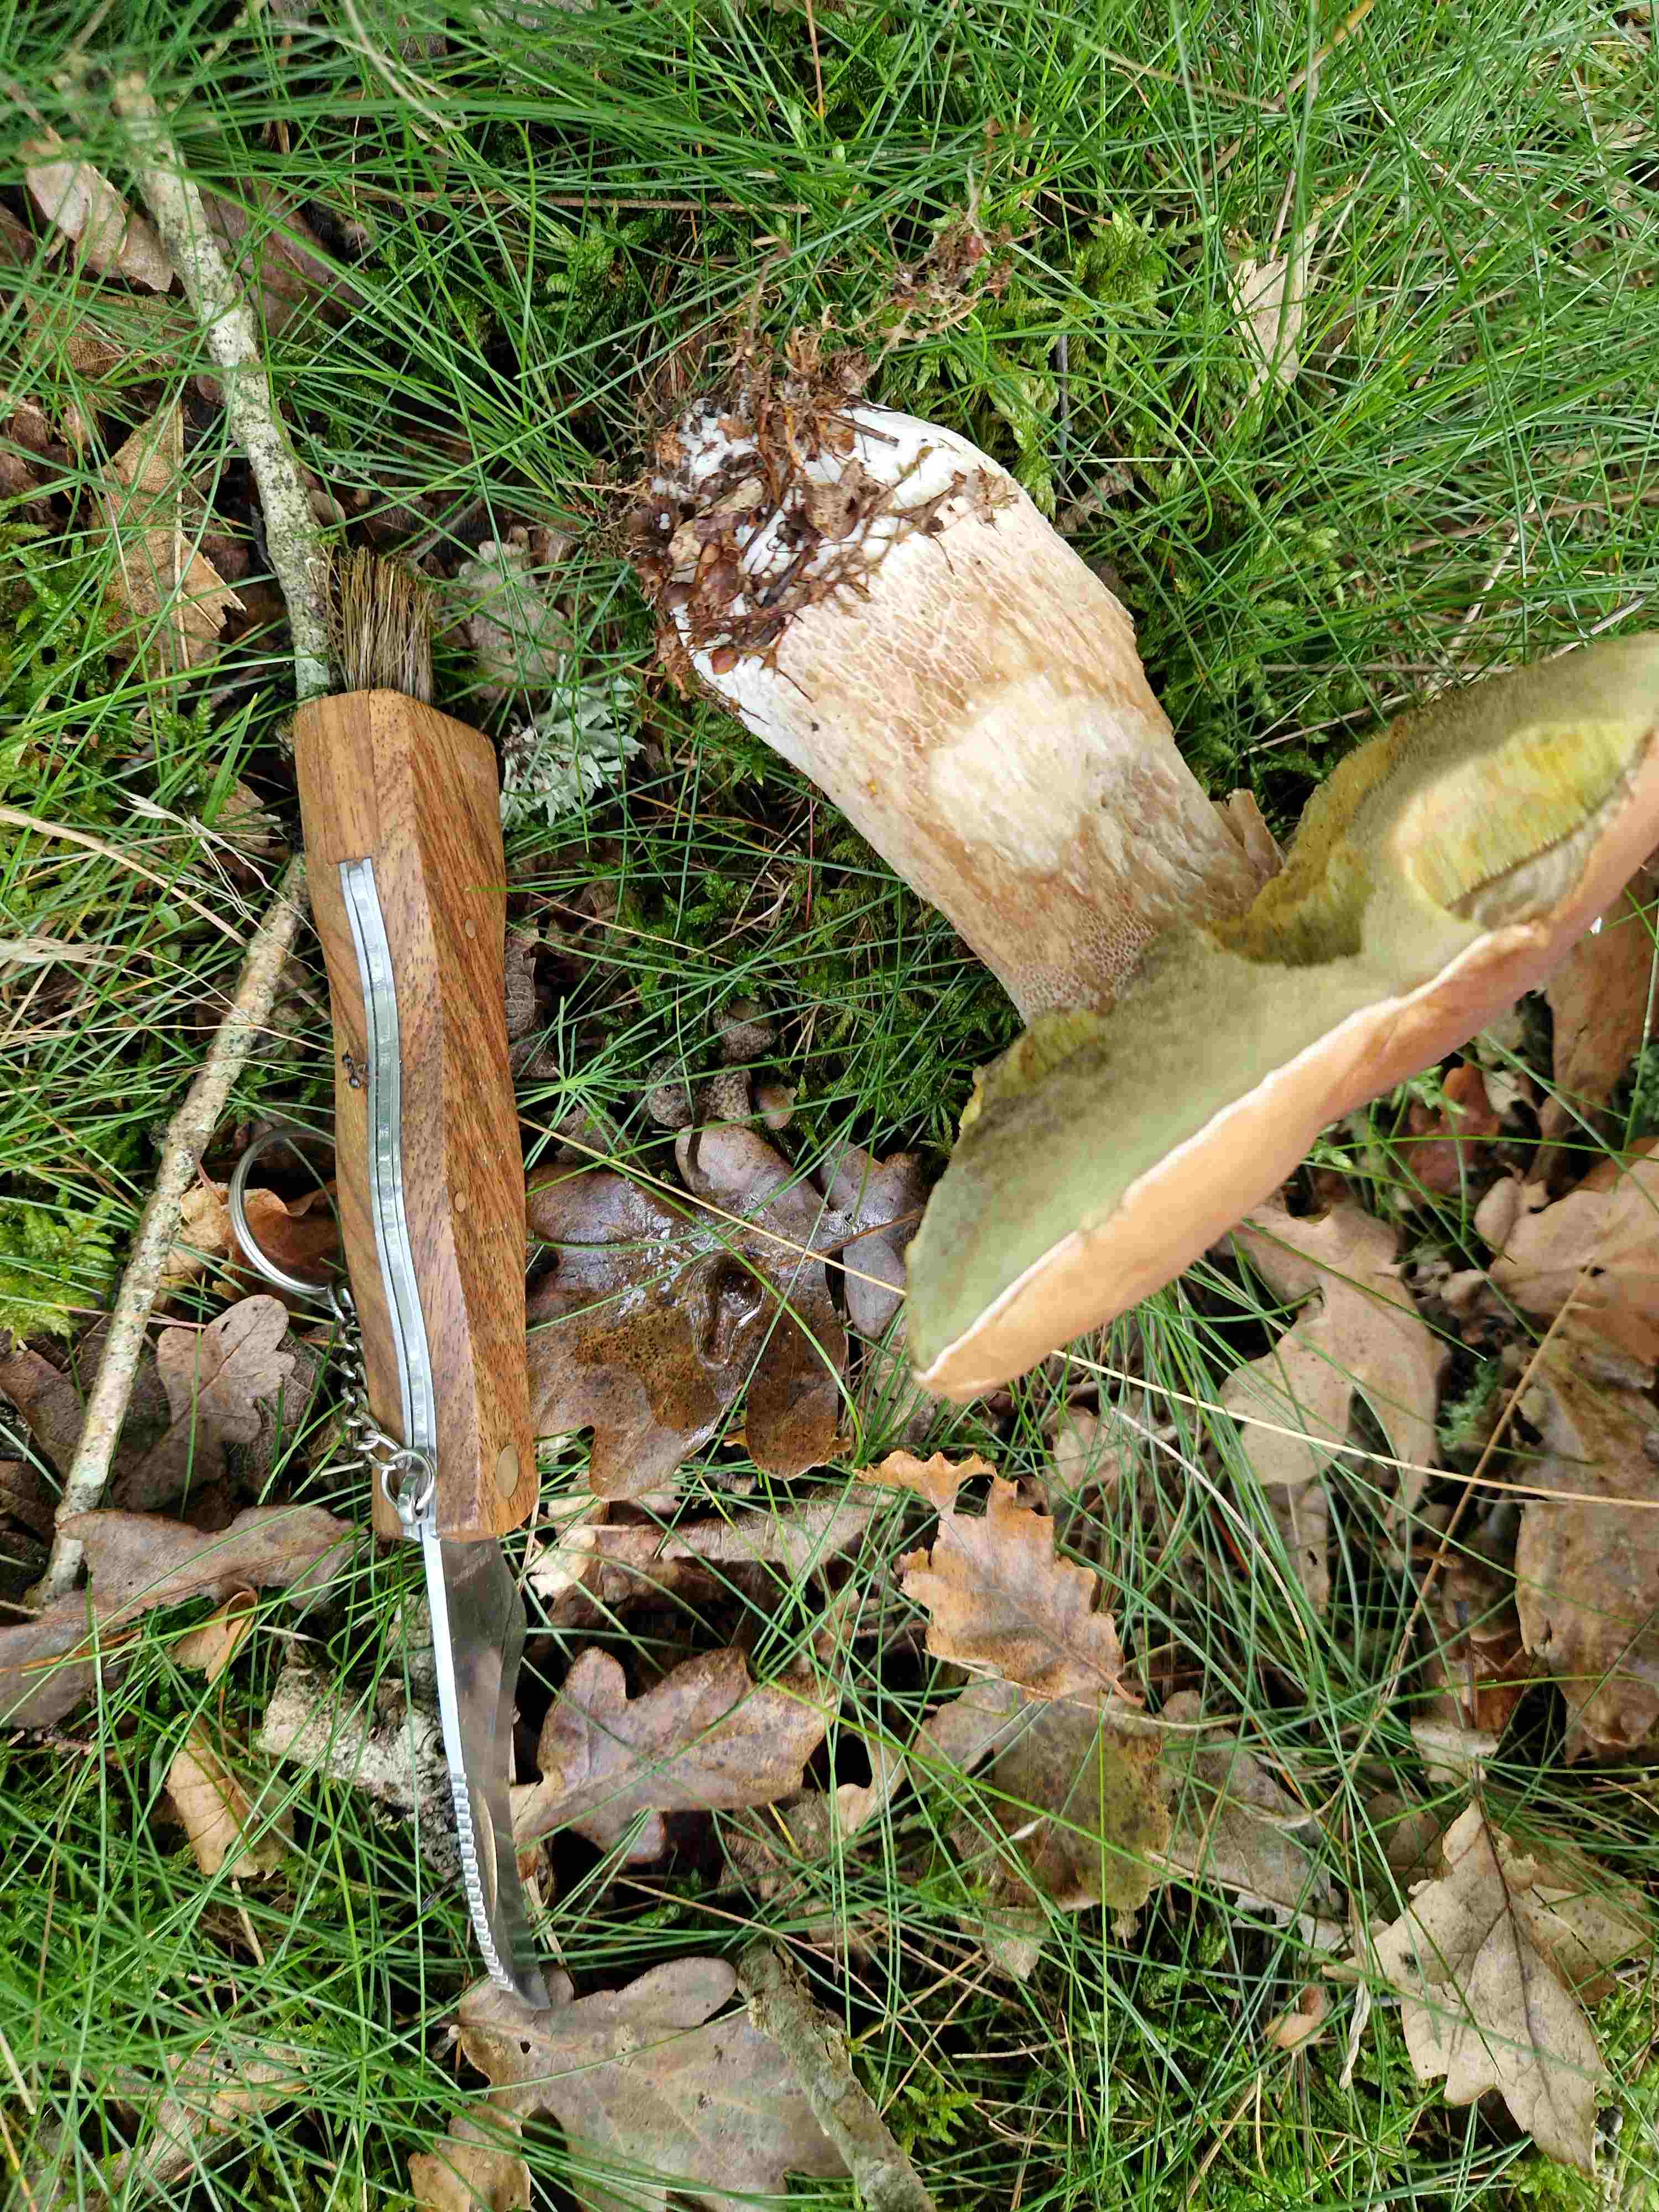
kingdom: Fungi
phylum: Basidiomycota
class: Agaricomycetes
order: Boletales
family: Boletaceae
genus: Boletus
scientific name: Boletus edulis
